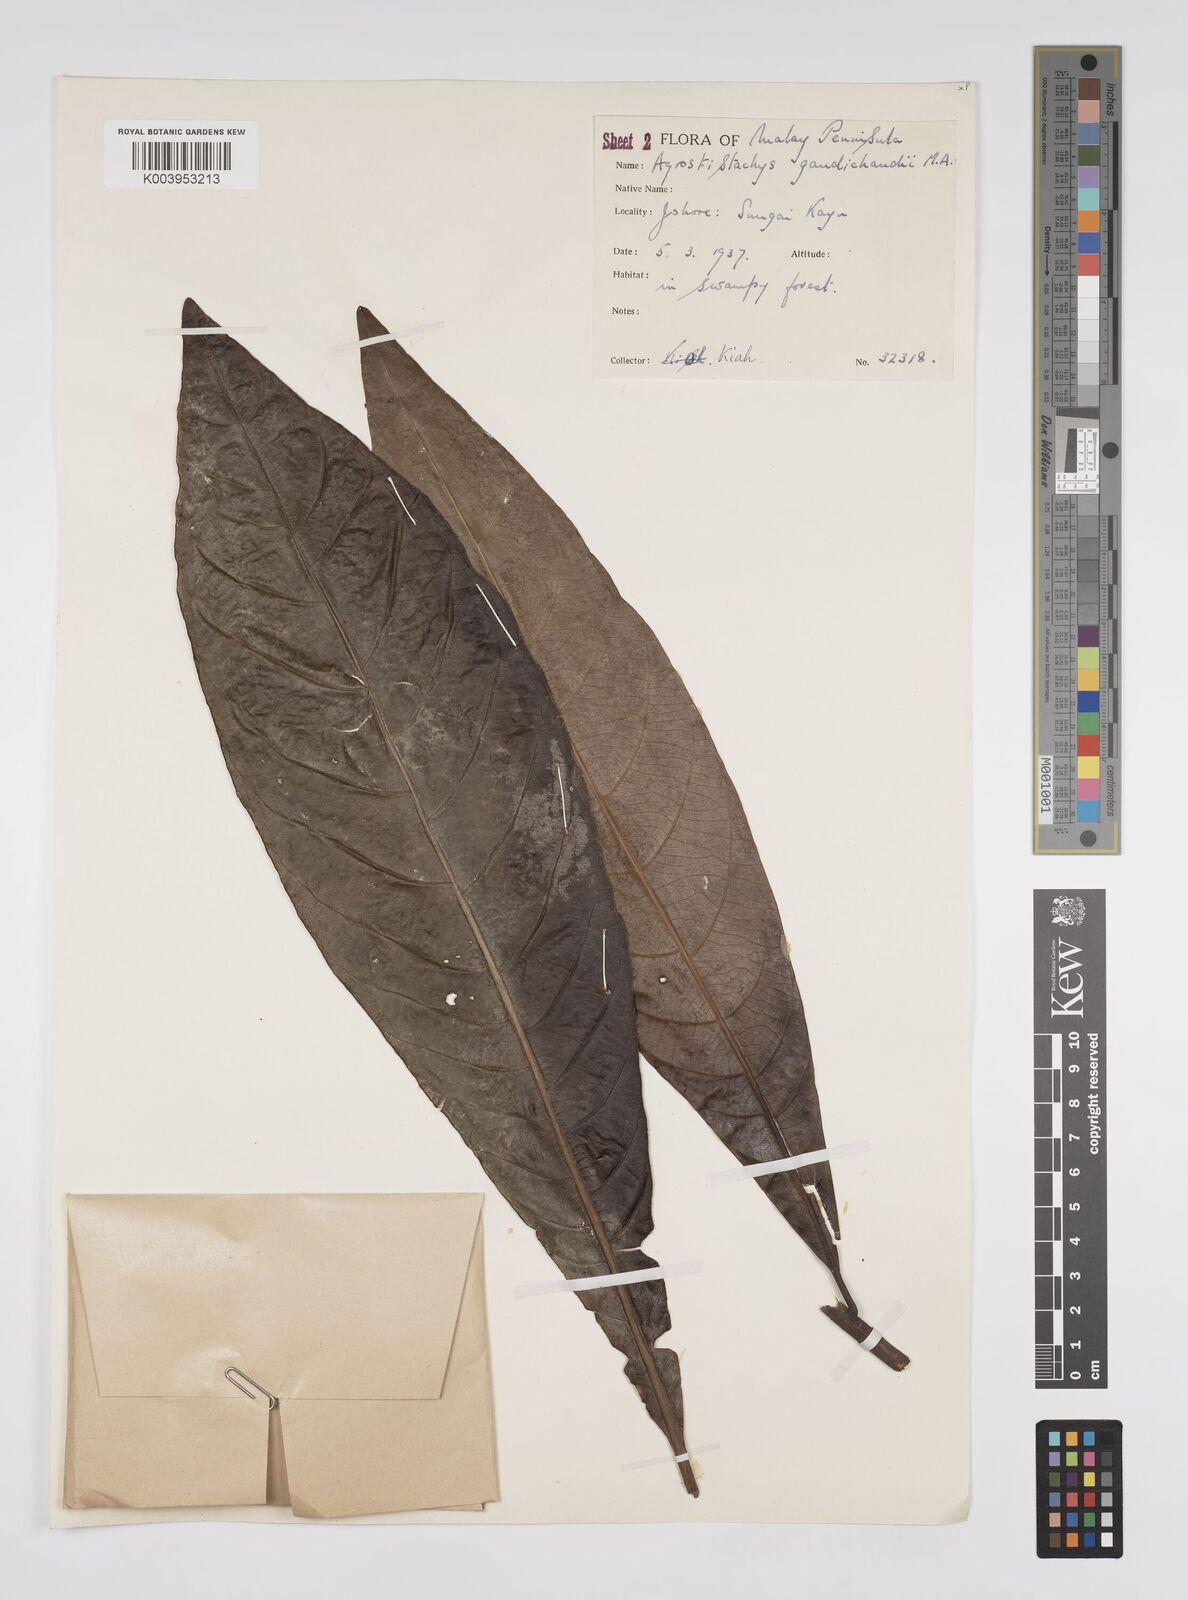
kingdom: Plantae
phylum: Tracheophyta
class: Magnoliopsida
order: Malpighiales
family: Euphorbiaceae
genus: Agrostistachys
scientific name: Agrostistachys gaudichaudii
